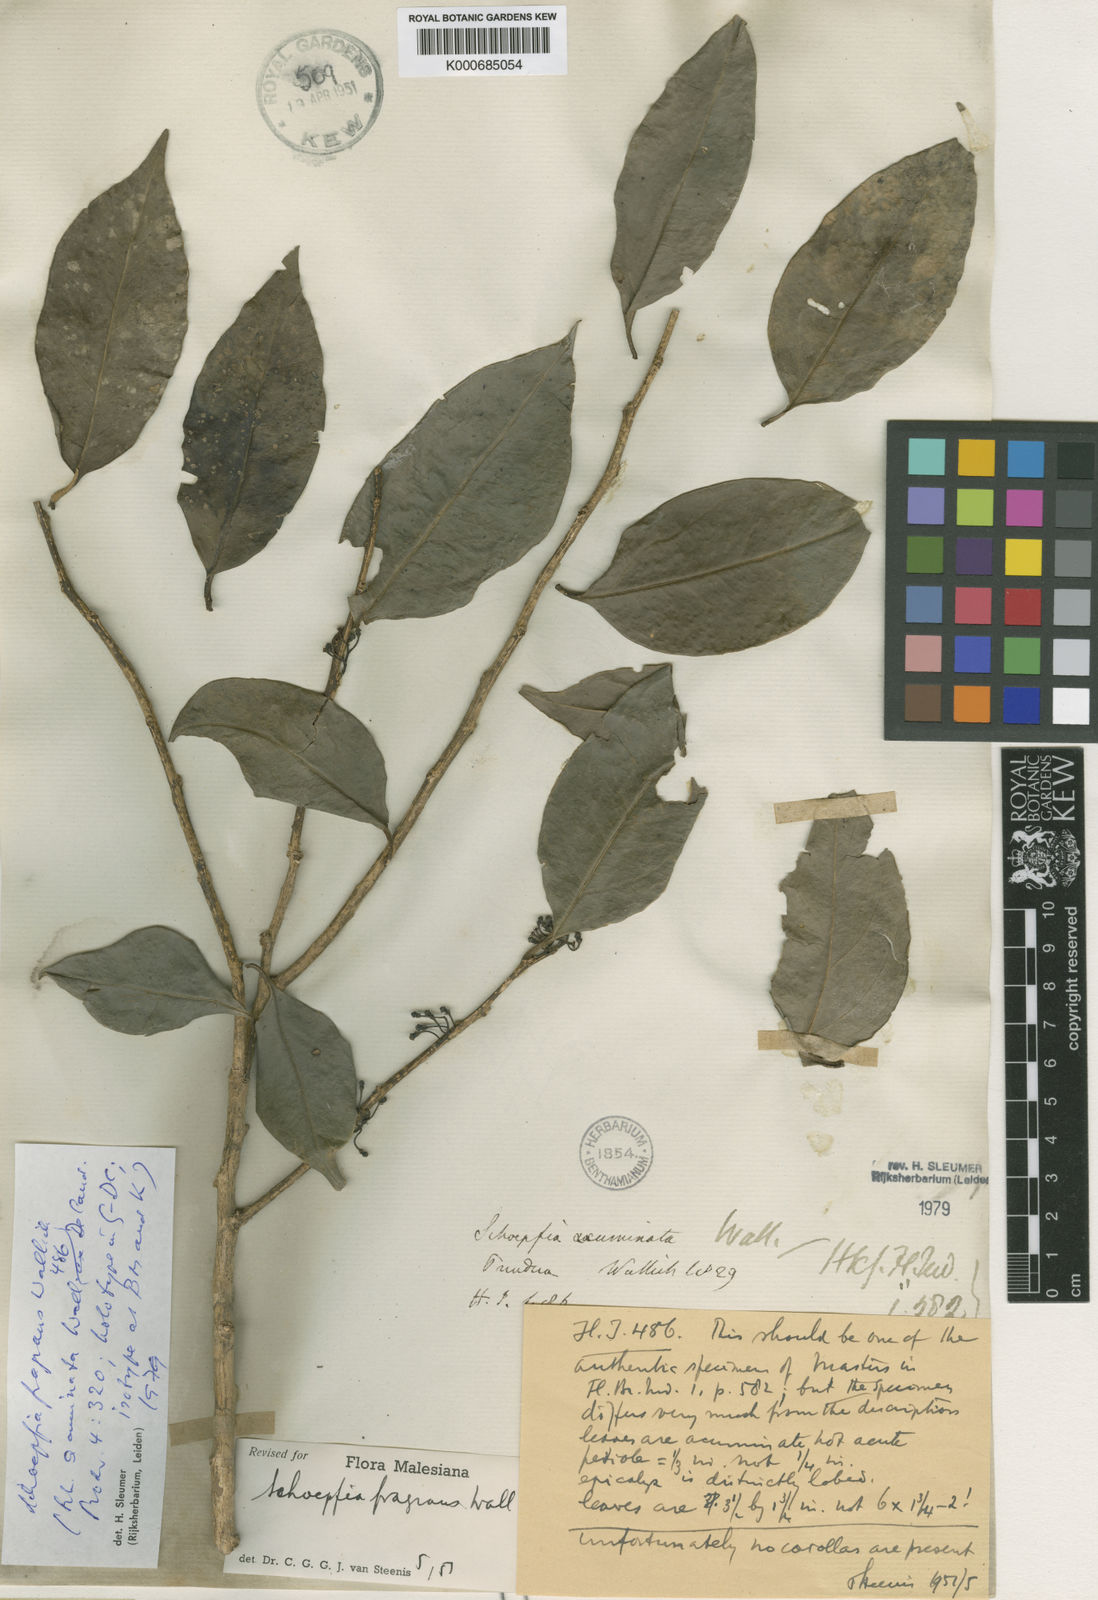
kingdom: Plantae
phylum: Tracheophyta
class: Magnoliopsida
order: Santalales
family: Schoepfiaceae
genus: Schoepfia
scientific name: Schoepfia fragrans
